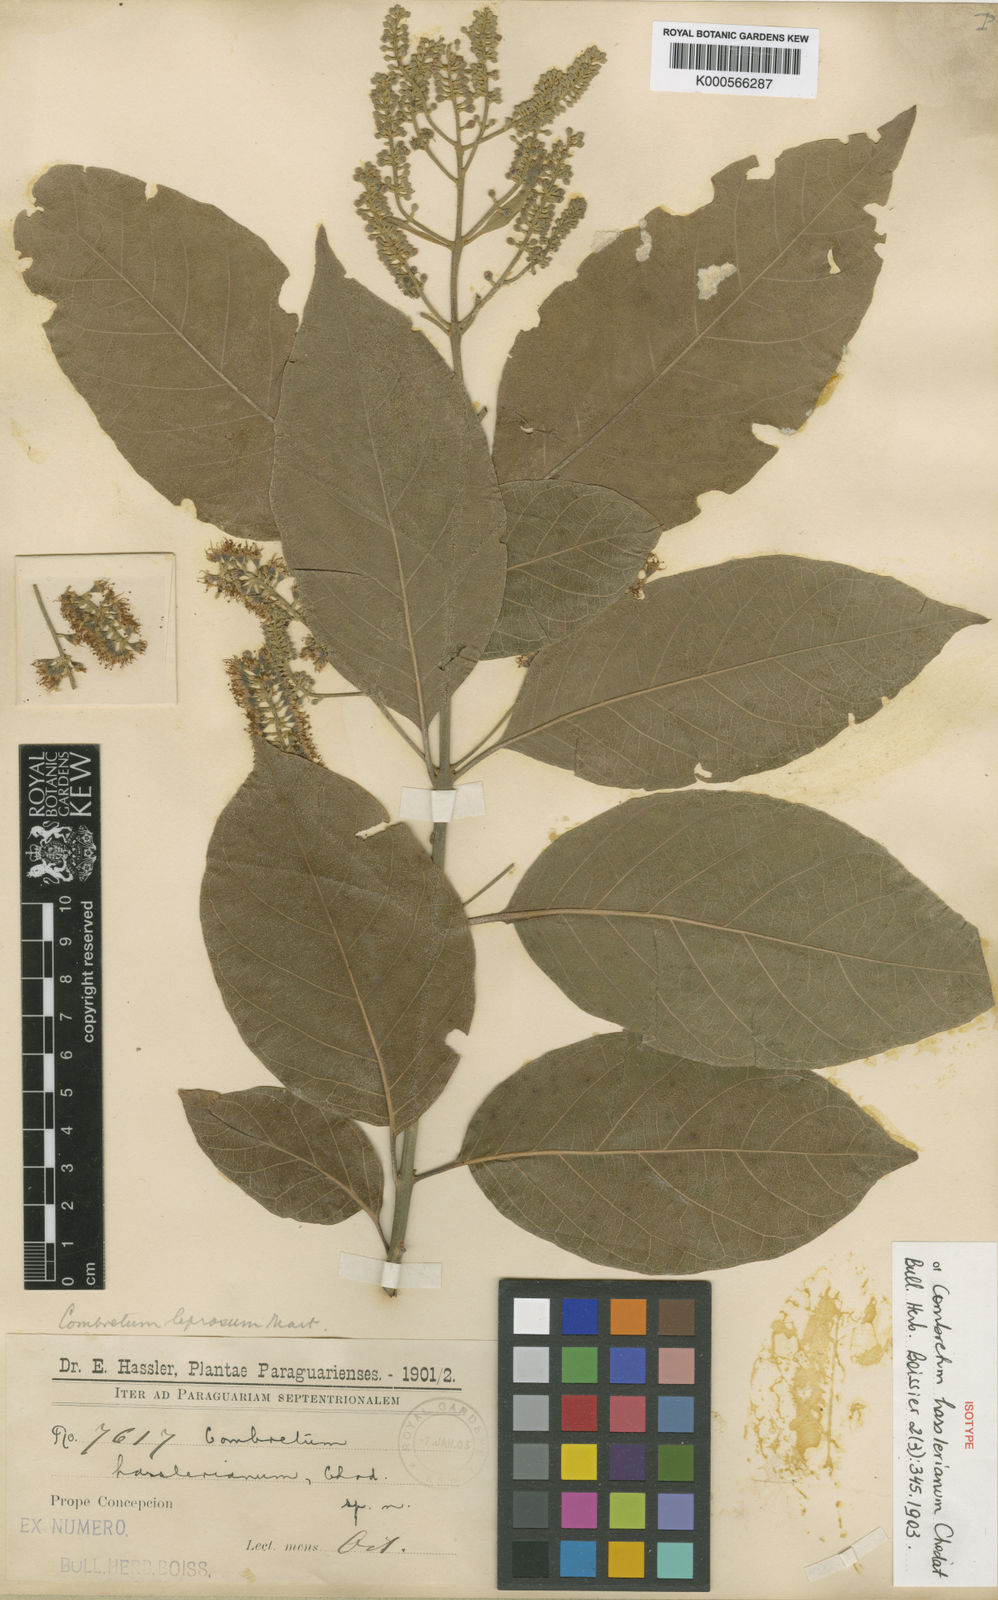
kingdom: Plantae
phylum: Tracheophyta
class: Magnoliopsida
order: Myrtales
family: Combretaceae
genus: Combretum
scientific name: Combretum leprosum
